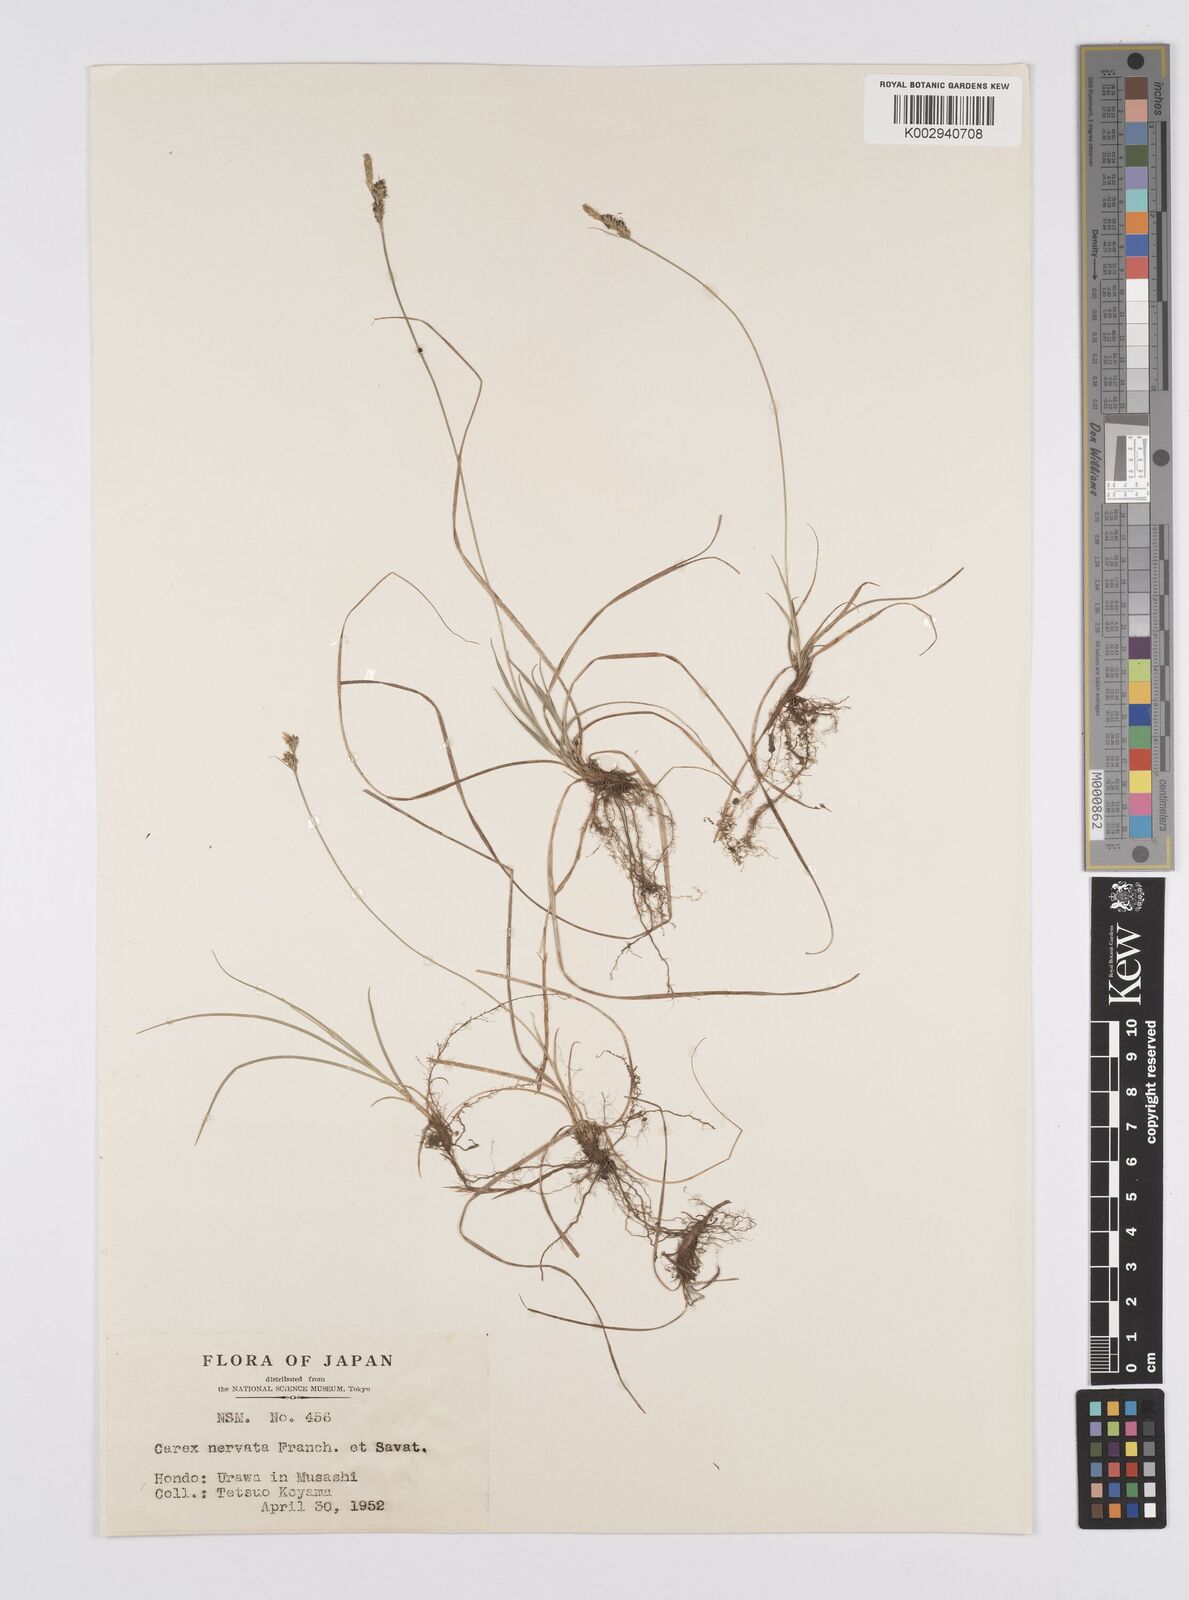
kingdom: Plantae
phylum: Tracheophyta
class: Liliopsida
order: Poales
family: Cyperaceae
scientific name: Cyperaceae
